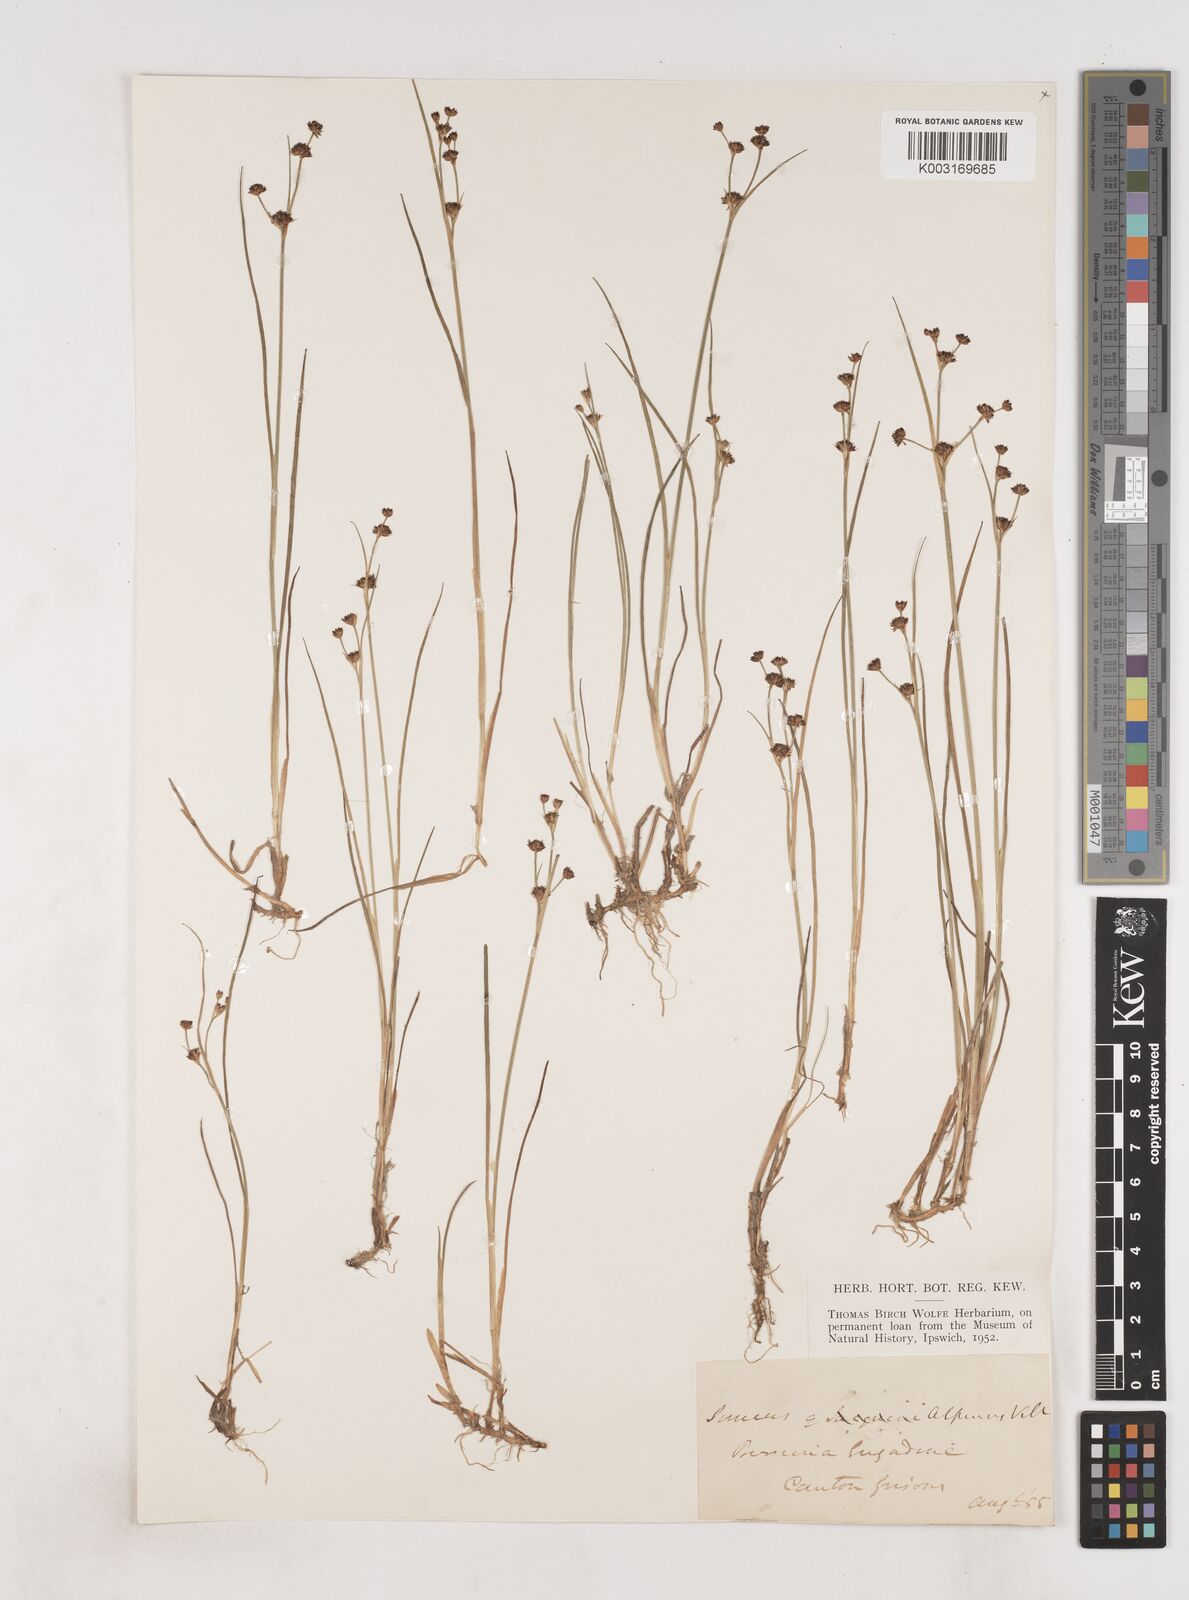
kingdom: Plantae
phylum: Tracheophyta
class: Liliopsida
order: Poales
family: Juncaceae
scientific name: Juncaceae
